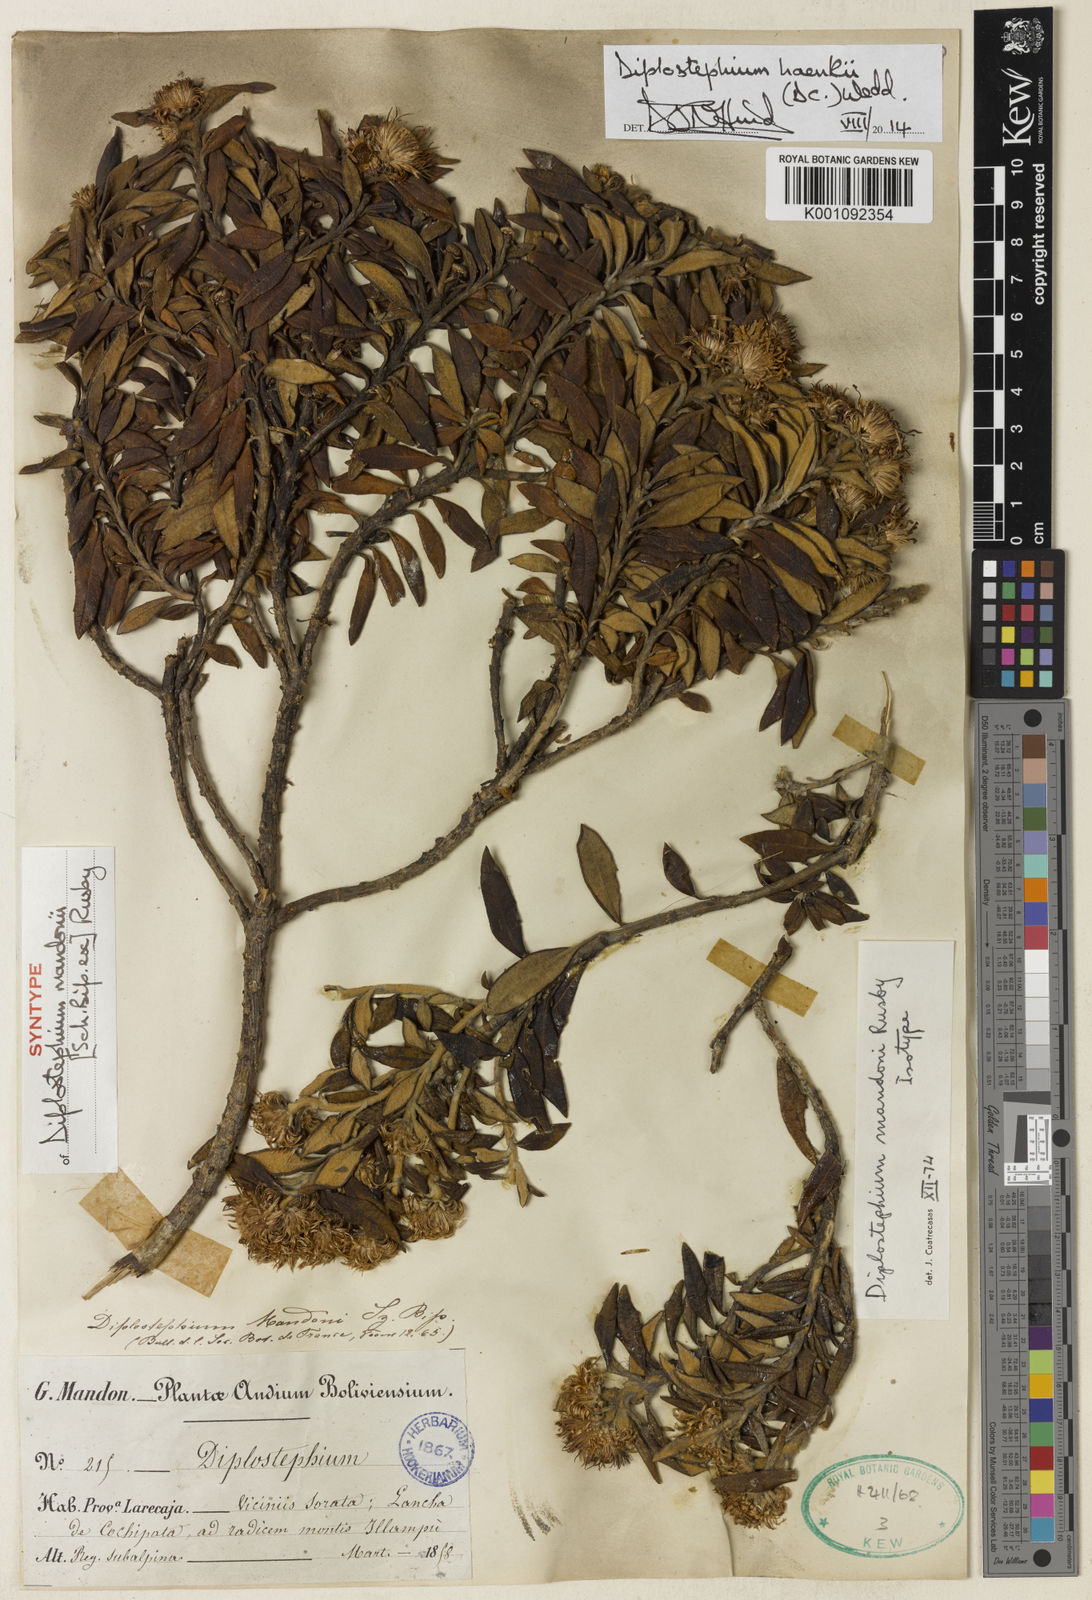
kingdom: Plantae
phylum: Tracheophyta
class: Magnoliopsida
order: Asterales
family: Asteraceae
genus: Diplostephium
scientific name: Diplostephium haenkei
